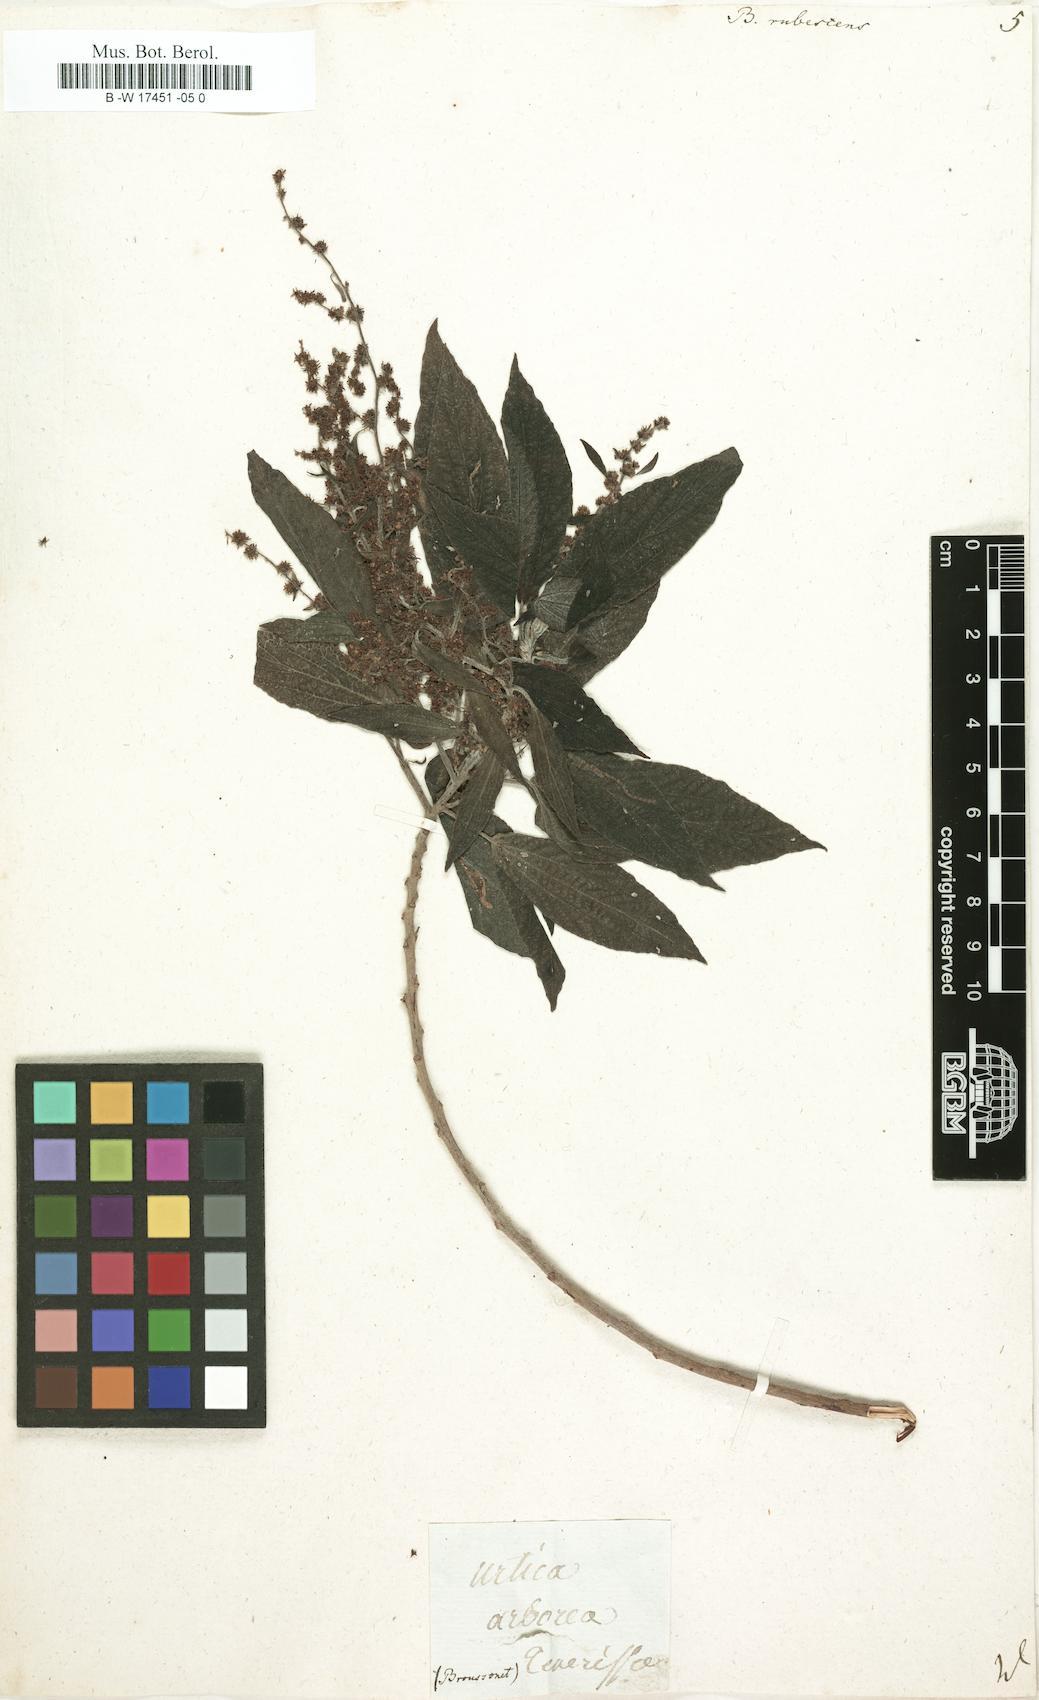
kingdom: Plantae
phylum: Tracheophyta
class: Magnoliopsida
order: Rosales
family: Urticaceae
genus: Gesnouinia
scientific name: Gesnouinia arborea
